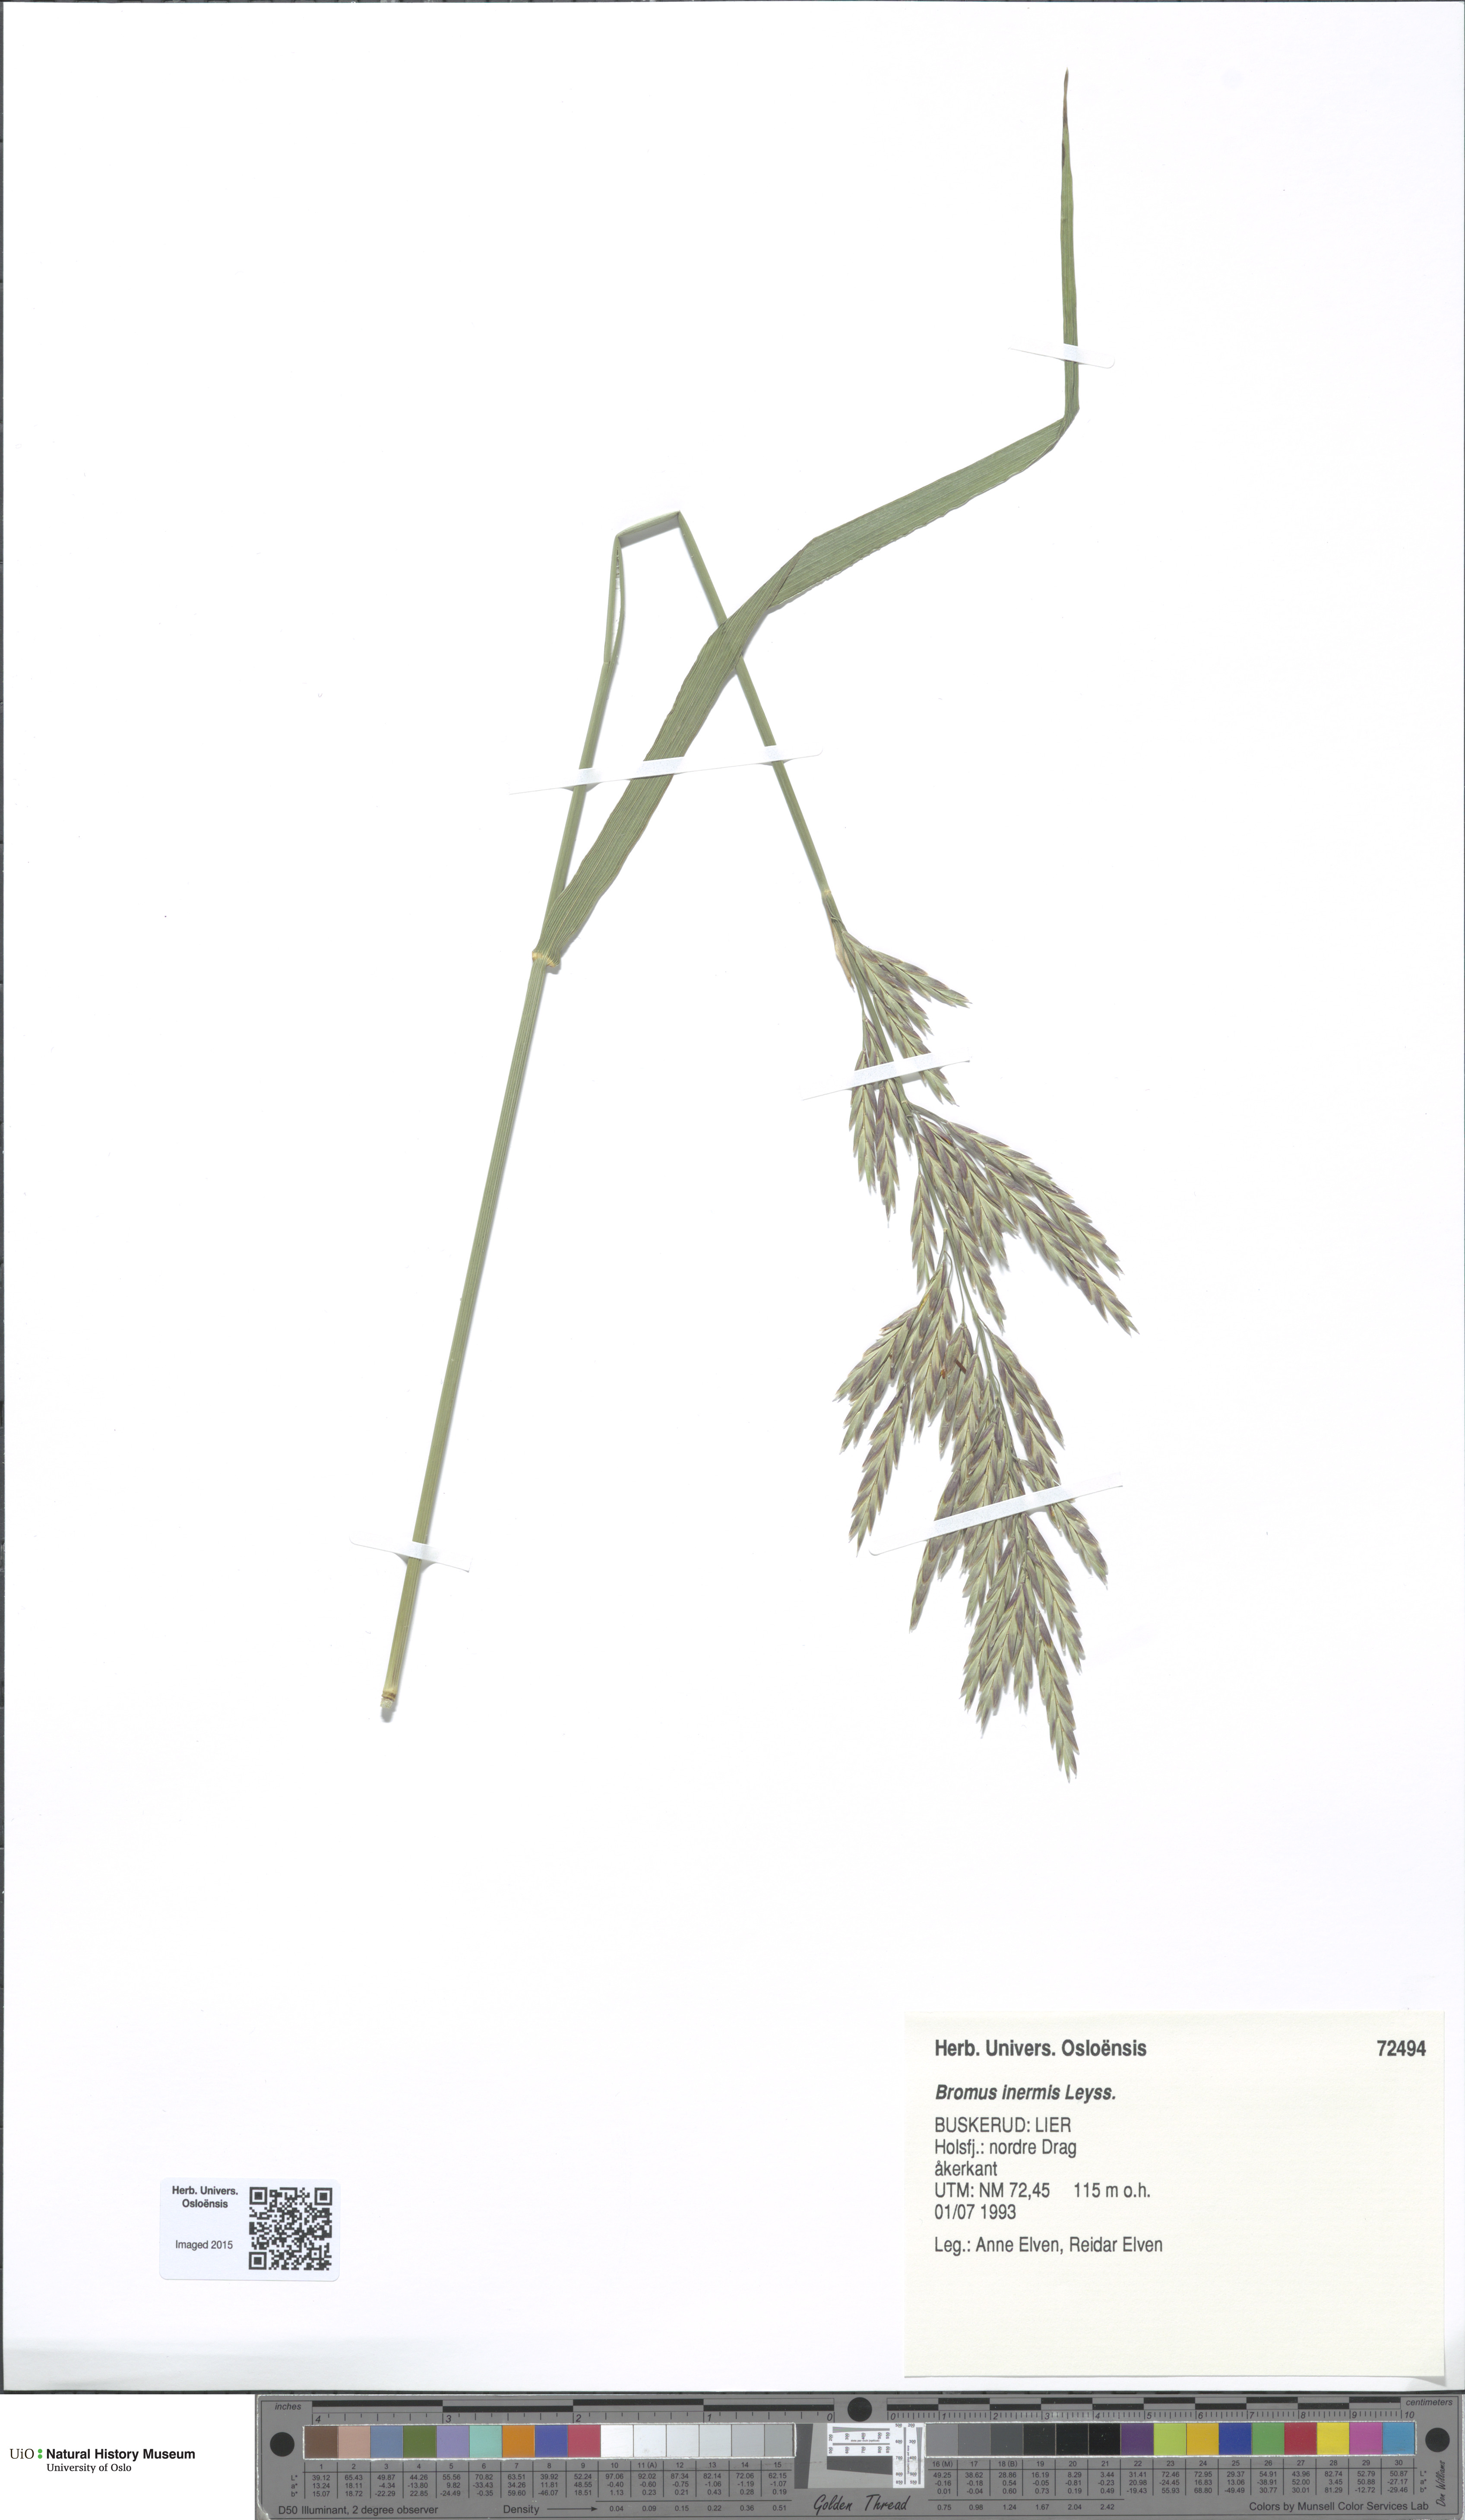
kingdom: Plantae
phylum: Tracheophyta
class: Liliopsida
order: Poales
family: Poaceae
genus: Bromus
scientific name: Bromus inermis
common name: Smooth brome
